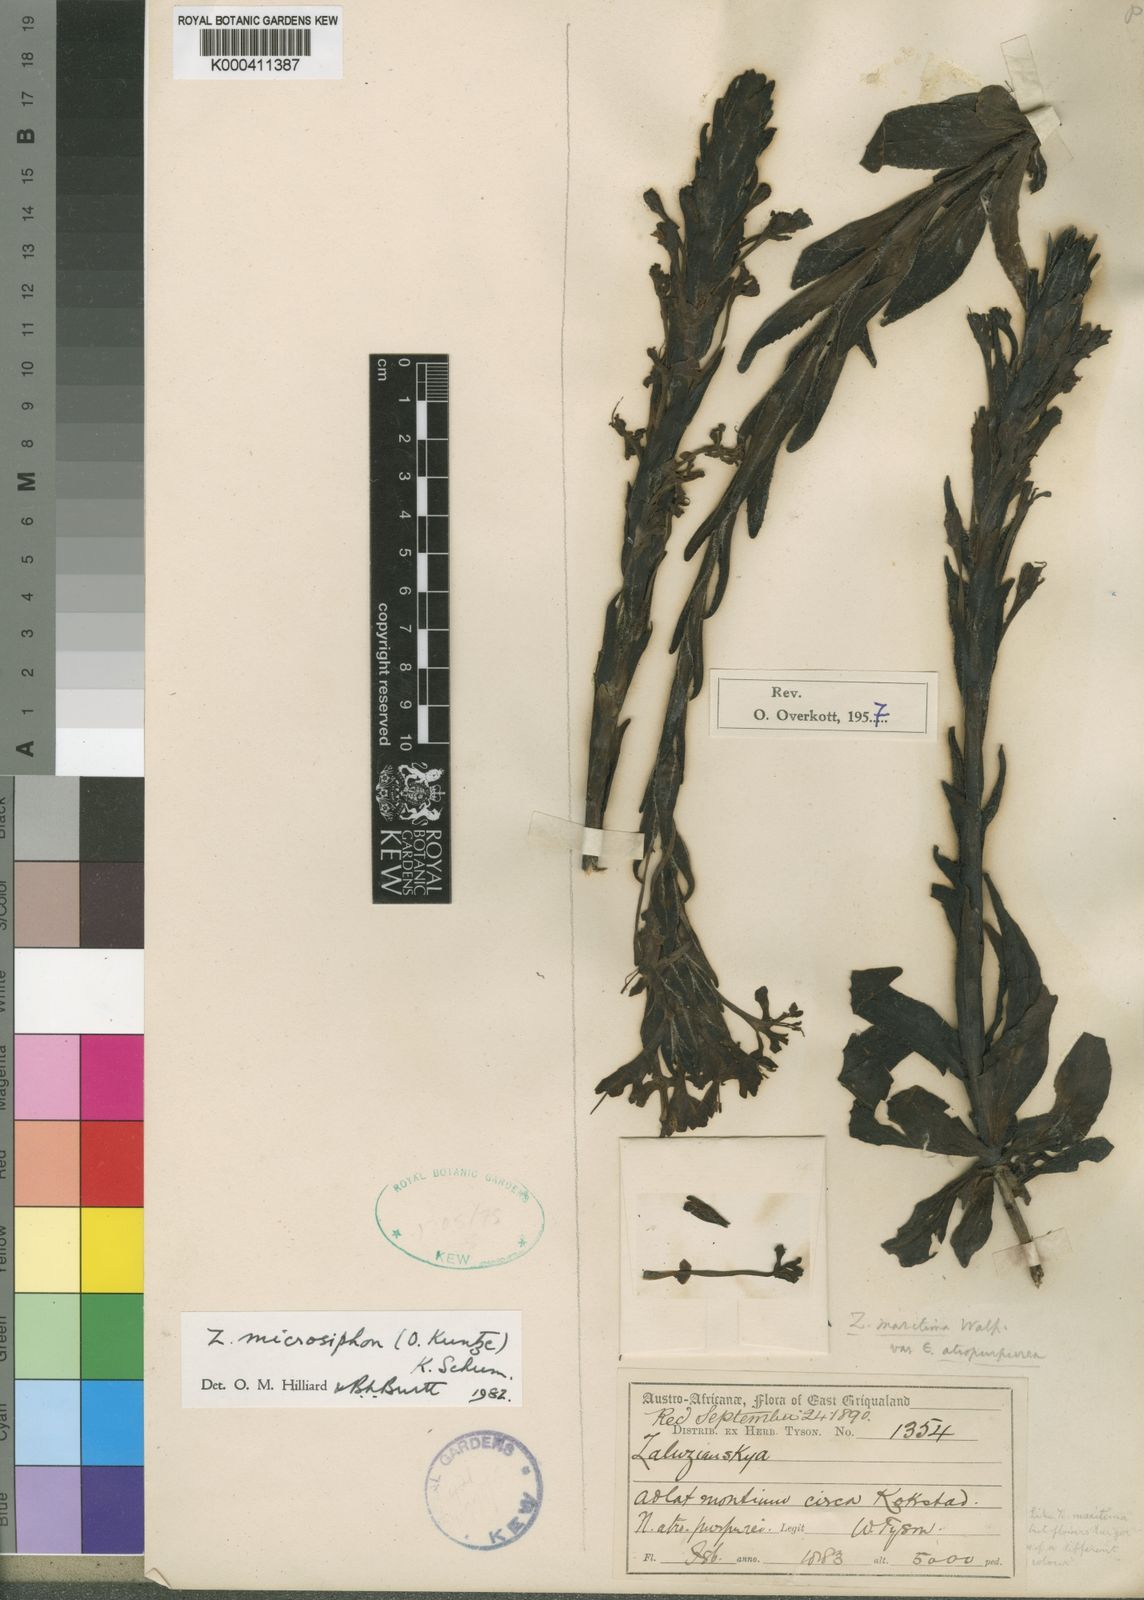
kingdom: Plantae
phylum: Tracheophyta
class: Magnoliopsida
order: Lamiales
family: Scrophulariaceae
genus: Zaluzianskya
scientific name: Zaluzianskya microsiphon
